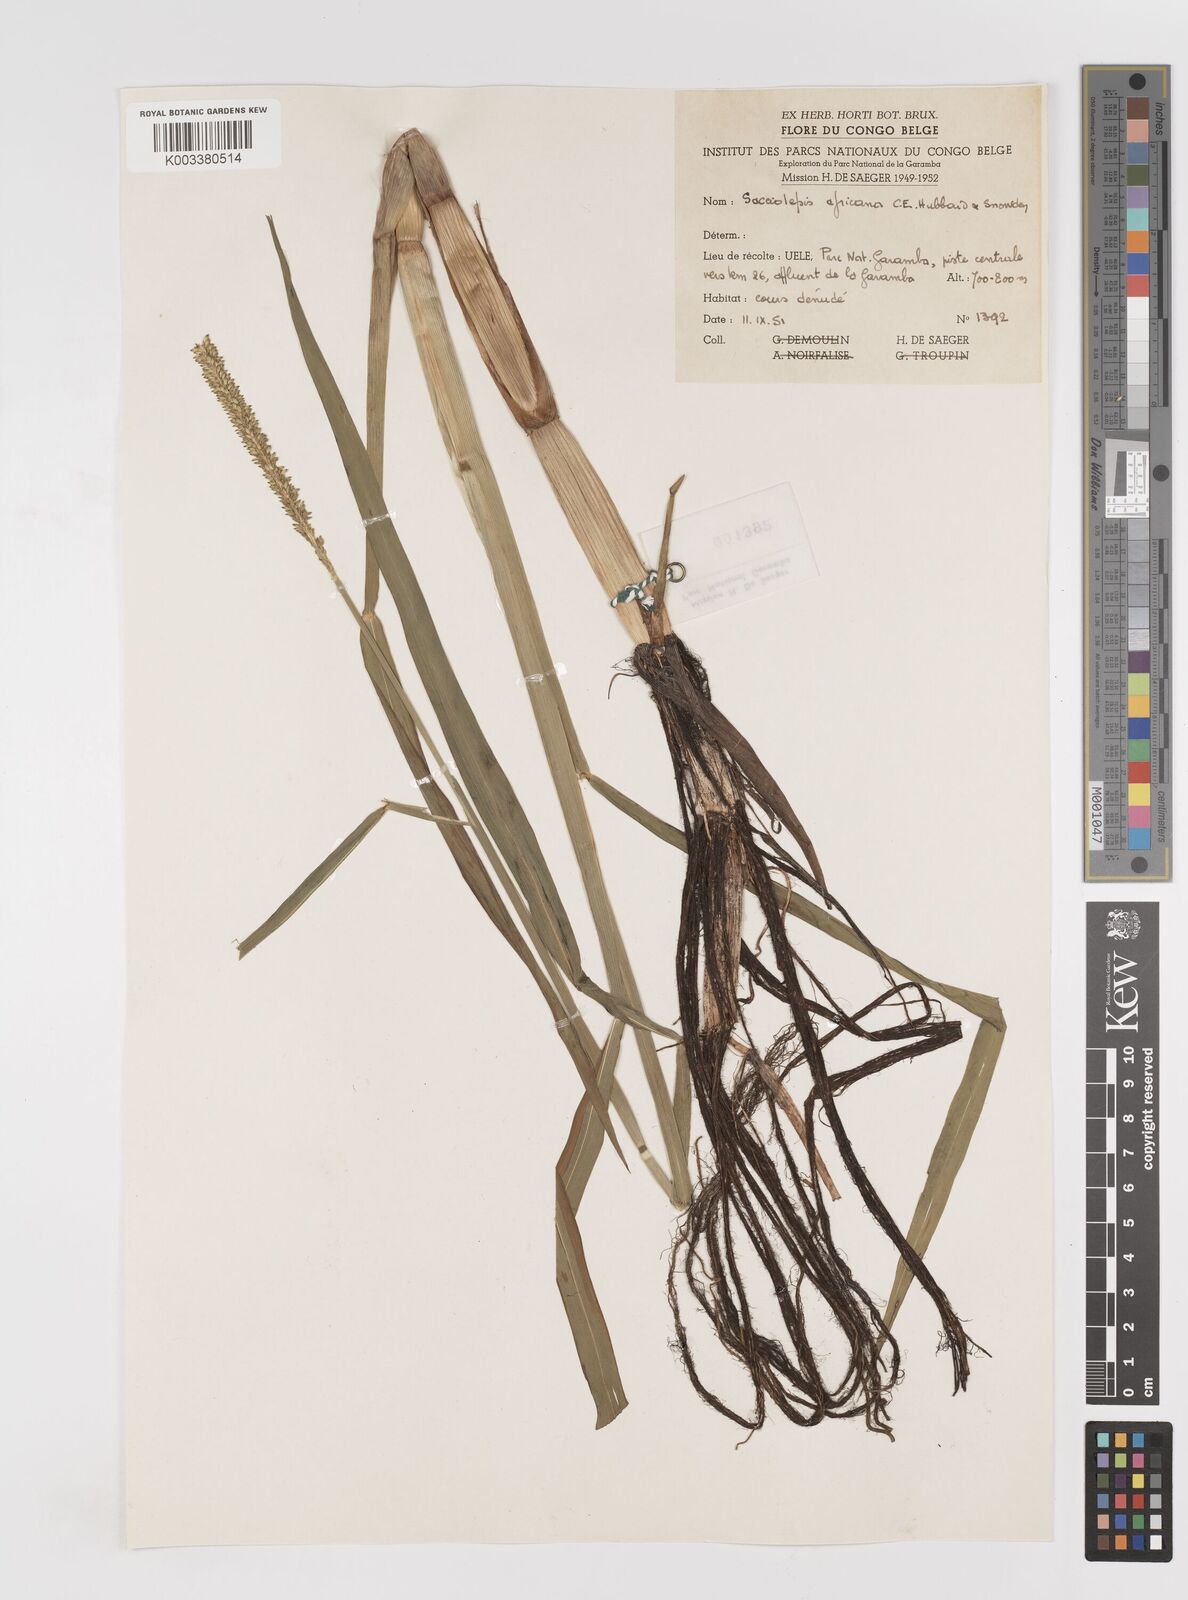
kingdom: Plantae
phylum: Tracheophyta
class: Liliopsida
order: Poales
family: Poaceae
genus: Sacciolepis
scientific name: Sacciolepis africana
